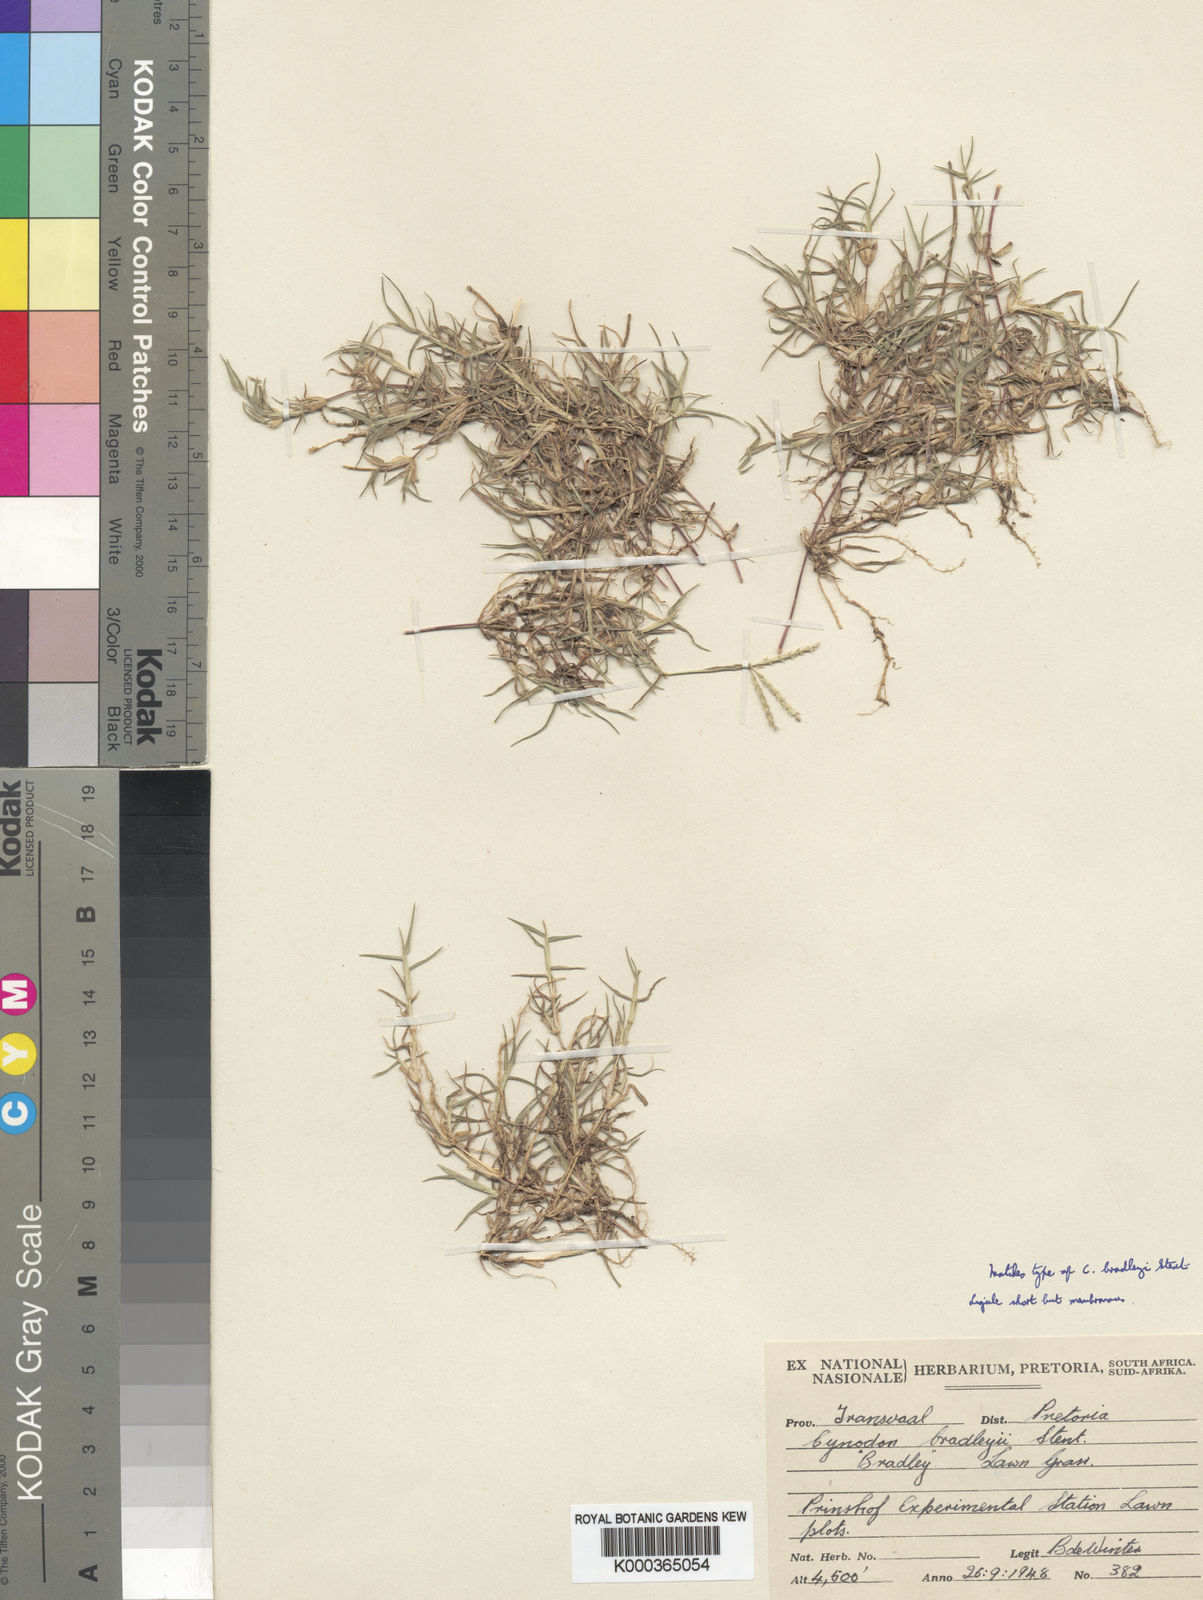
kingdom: Plantae
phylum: Tracheophyta
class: Liliopsida
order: Poales
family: Poaceae
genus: Cynodon
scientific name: Cynodon incompletus
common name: African bermuda-grass
